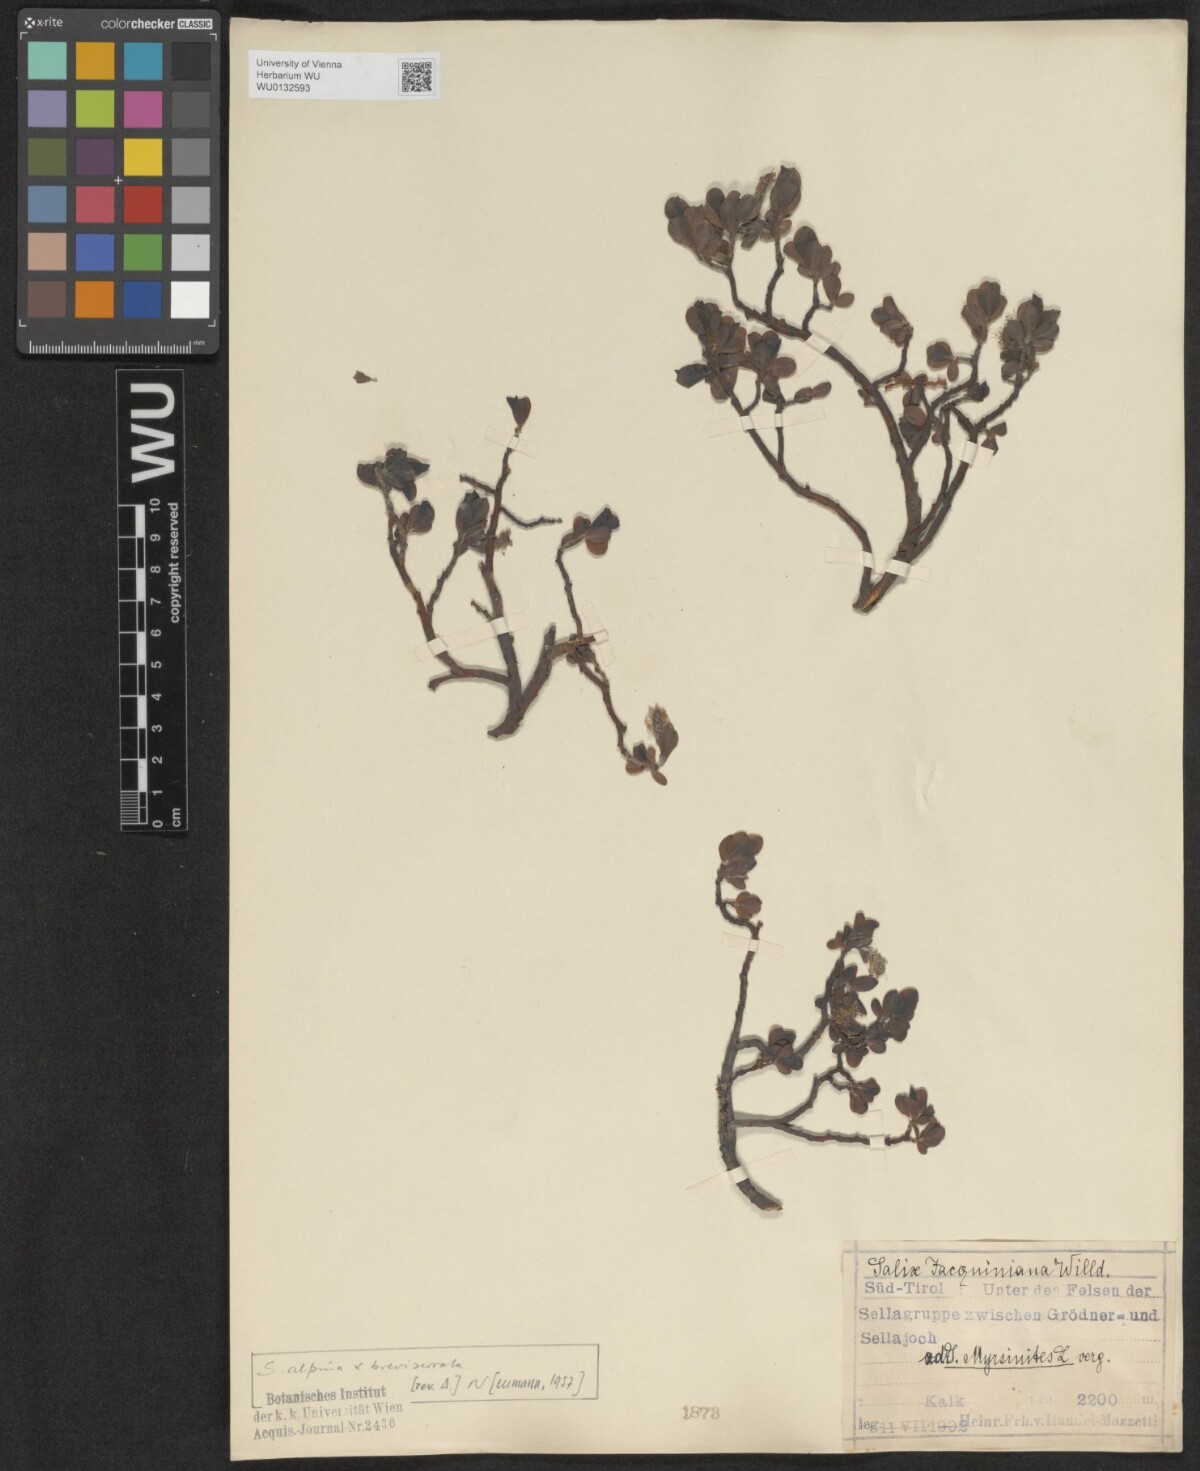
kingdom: Plantae
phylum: Tracheophyta
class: Magnoliopsida
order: Malpighiales
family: Salicaceae
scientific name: Salicaceae
